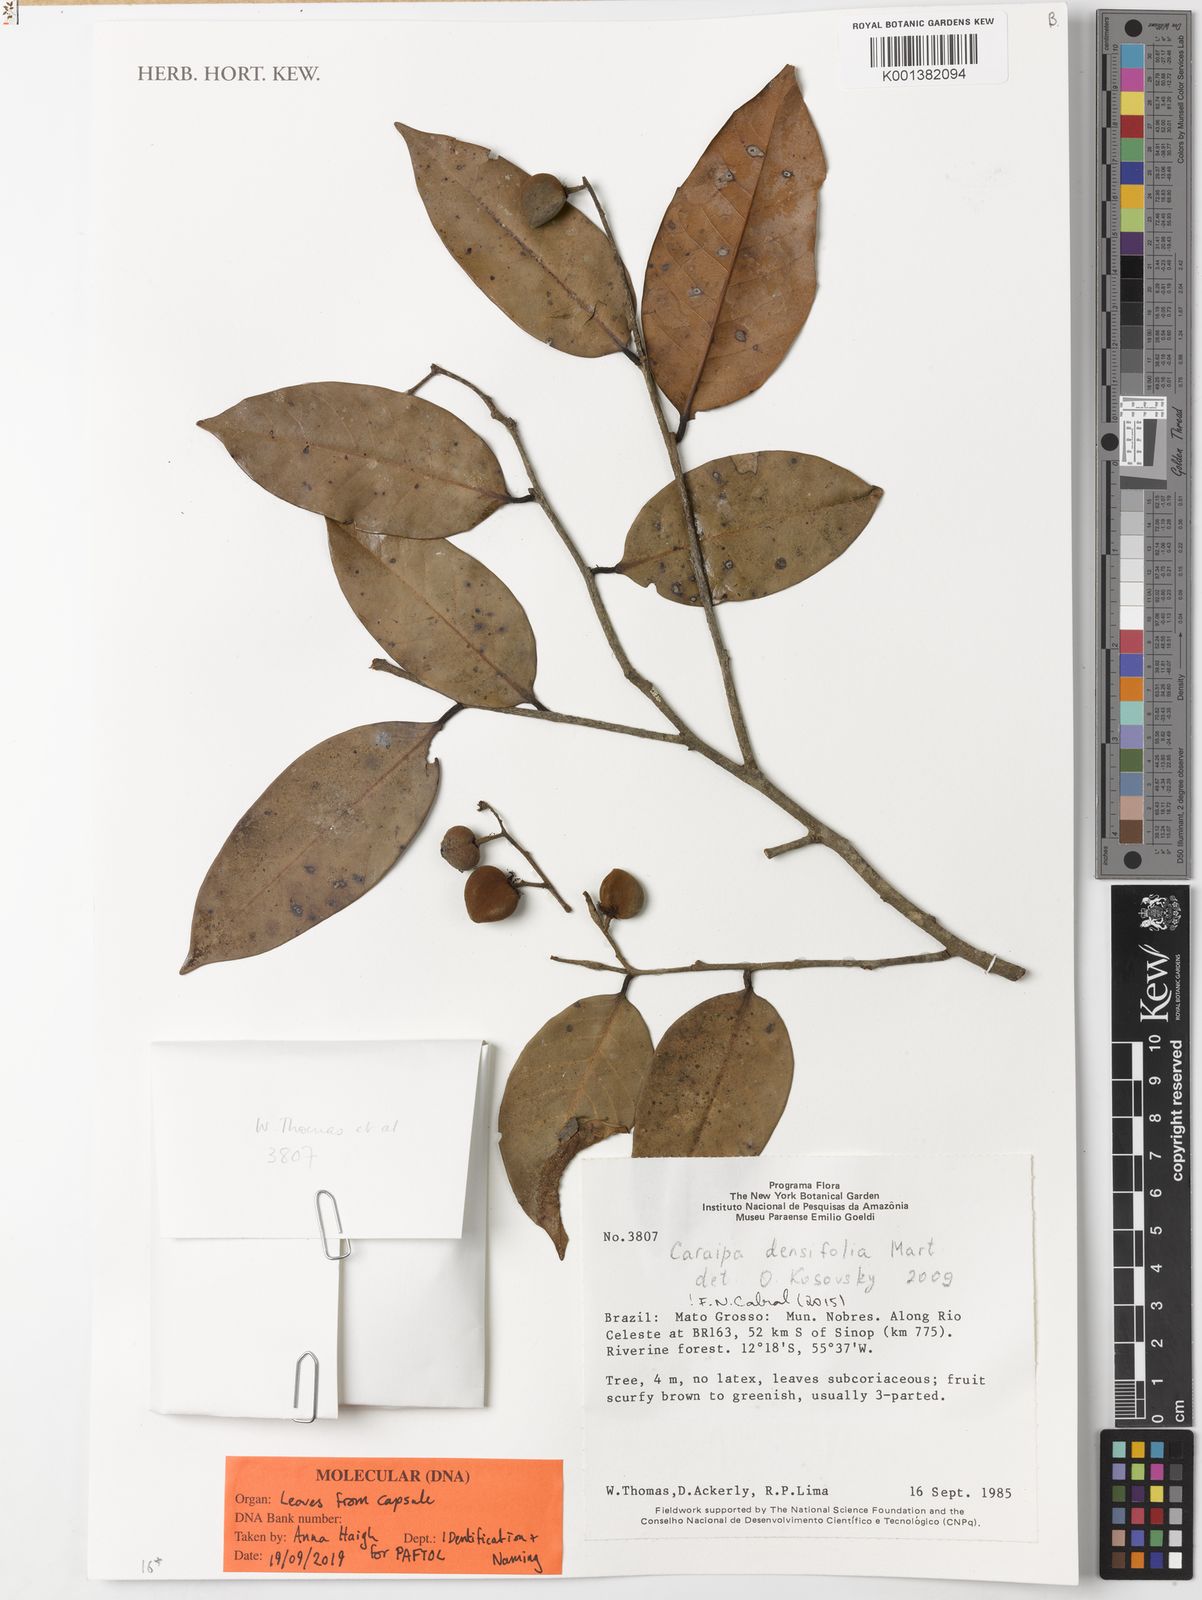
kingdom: Plantae
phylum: Tracheophyta
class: Magnoliopsida
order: Malpighiales
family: Calophyllaceae
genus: Caraipa
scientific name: Caraipa densifolia
